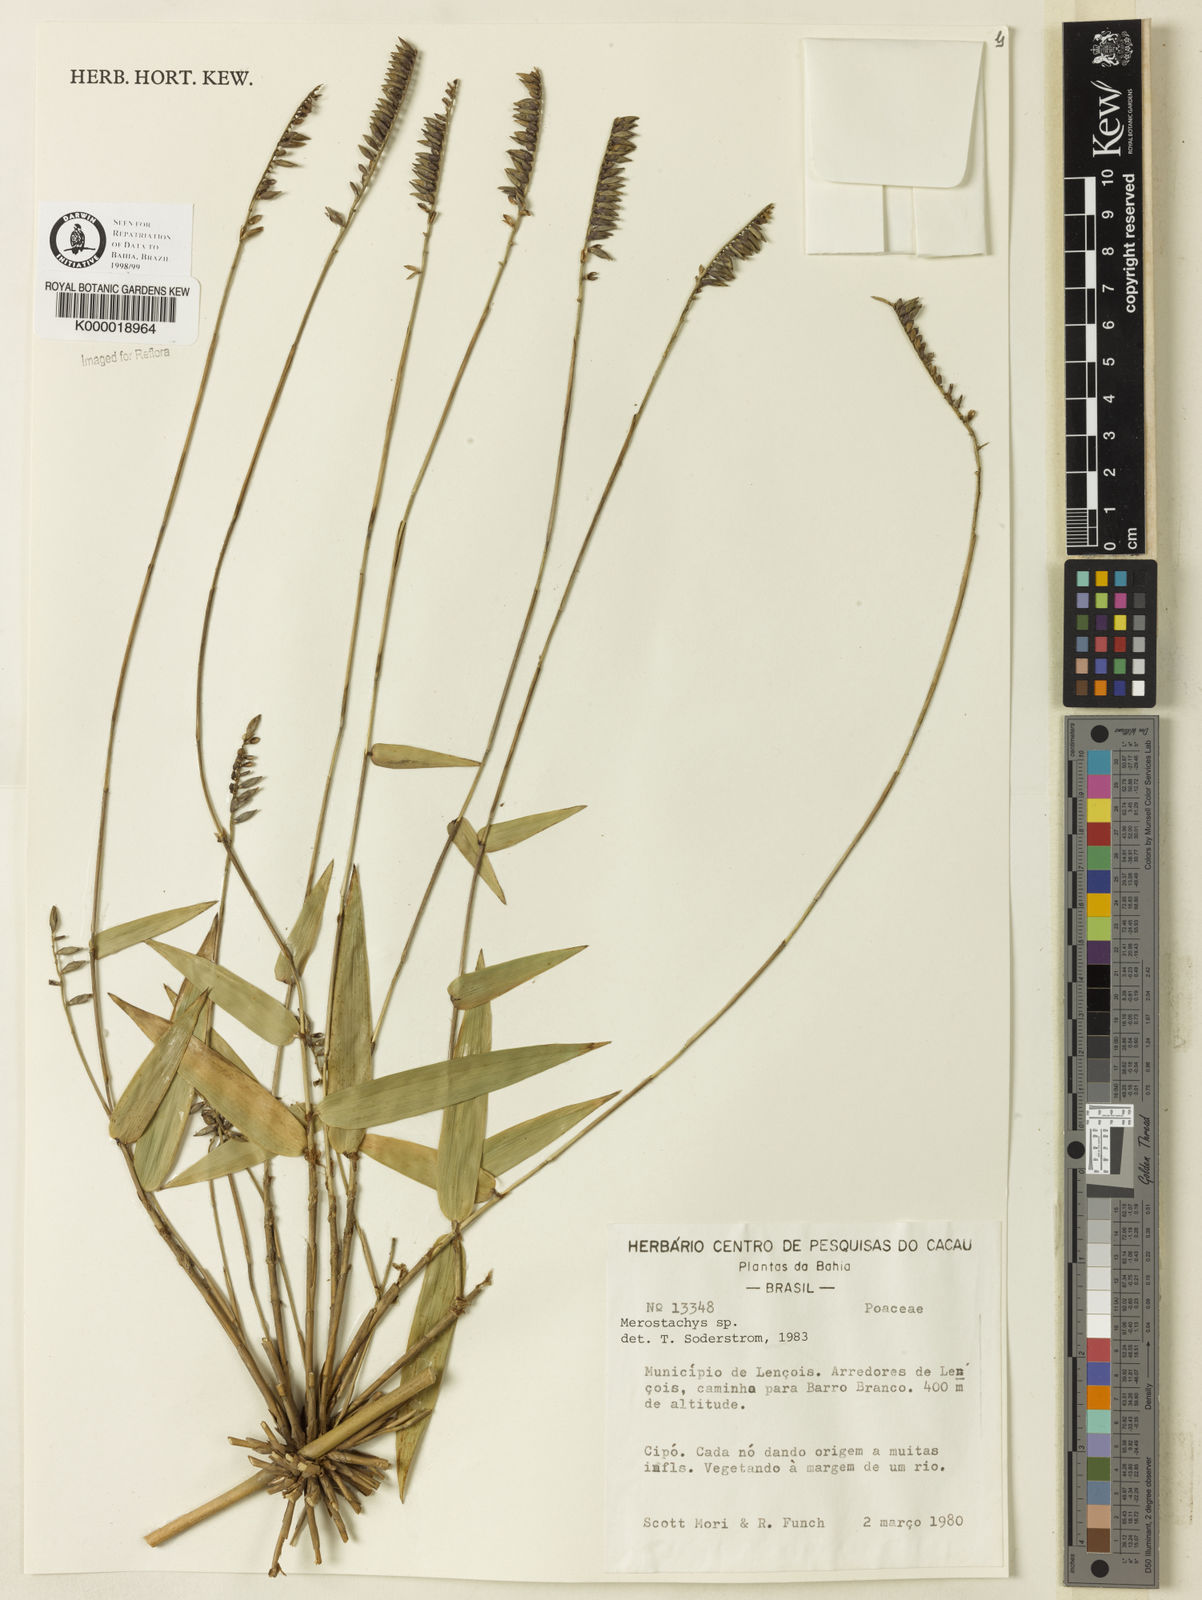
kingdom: Plantae
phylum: Tracheophyta
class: Liliopsida
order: Poales
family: Poaceae
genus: Merostachys
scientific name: Merostachys
